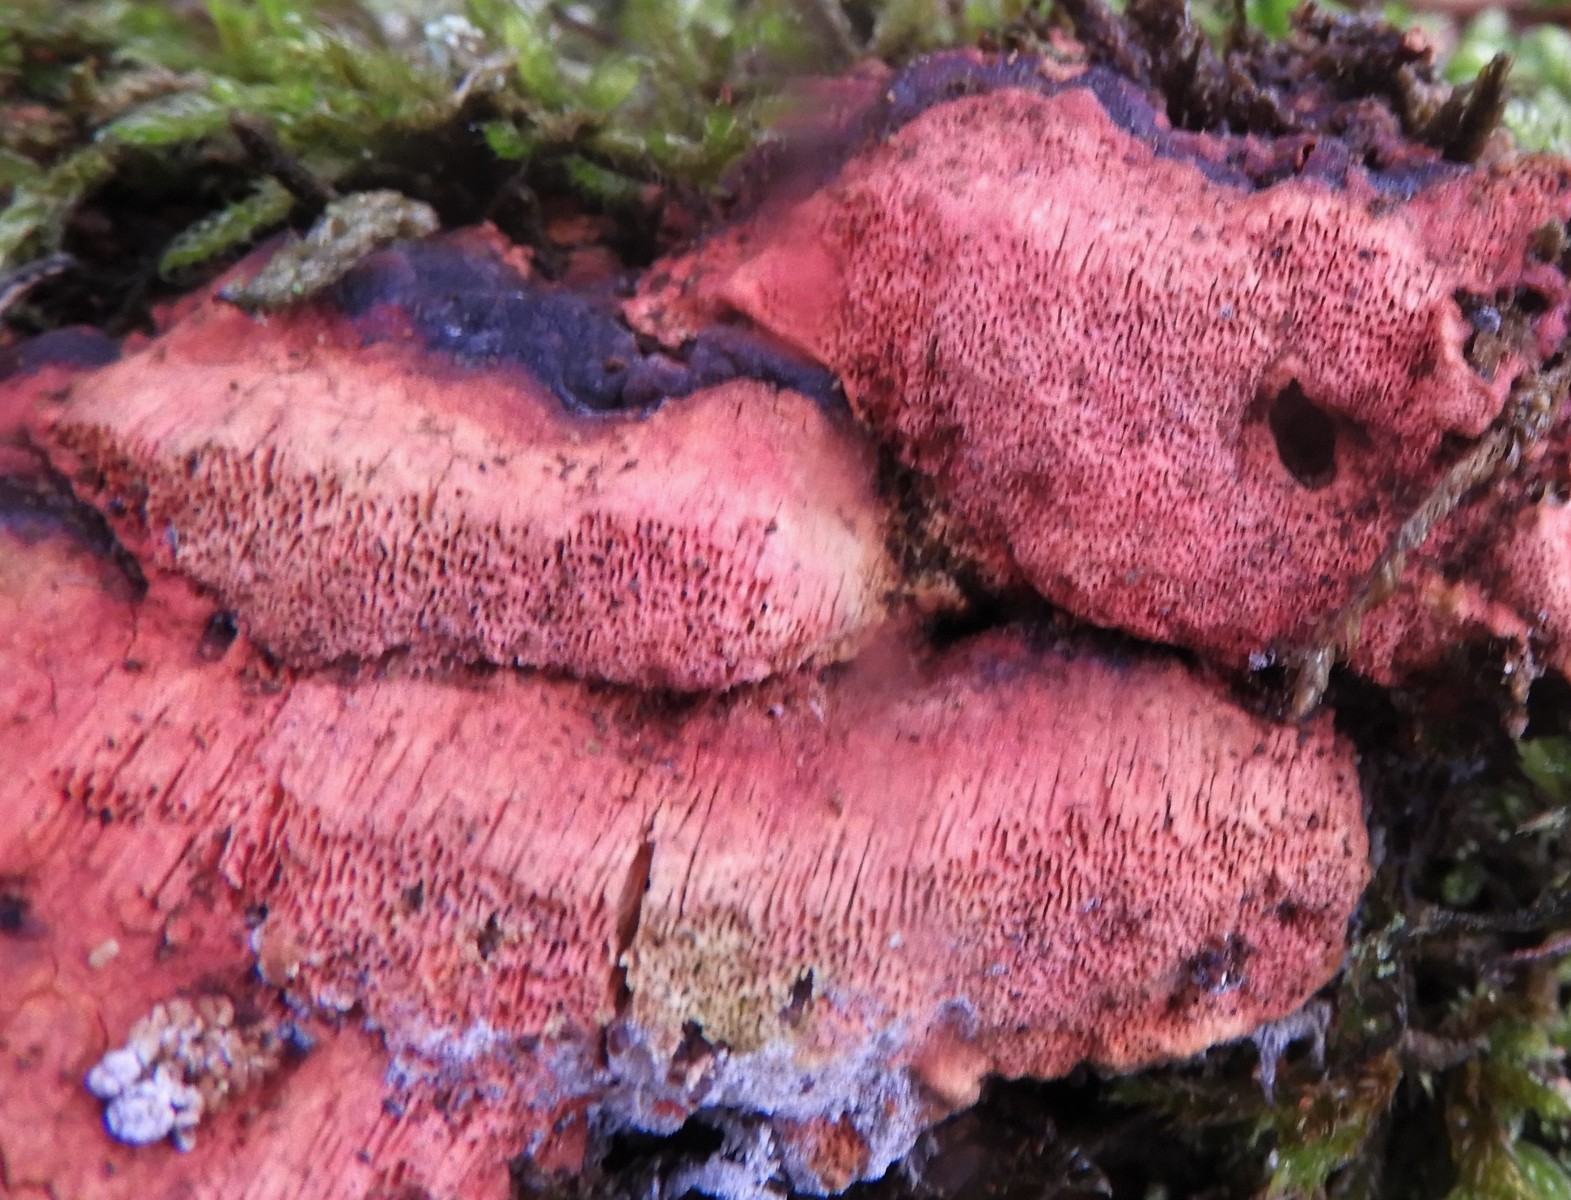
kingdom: Fungi
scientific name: Fungi
